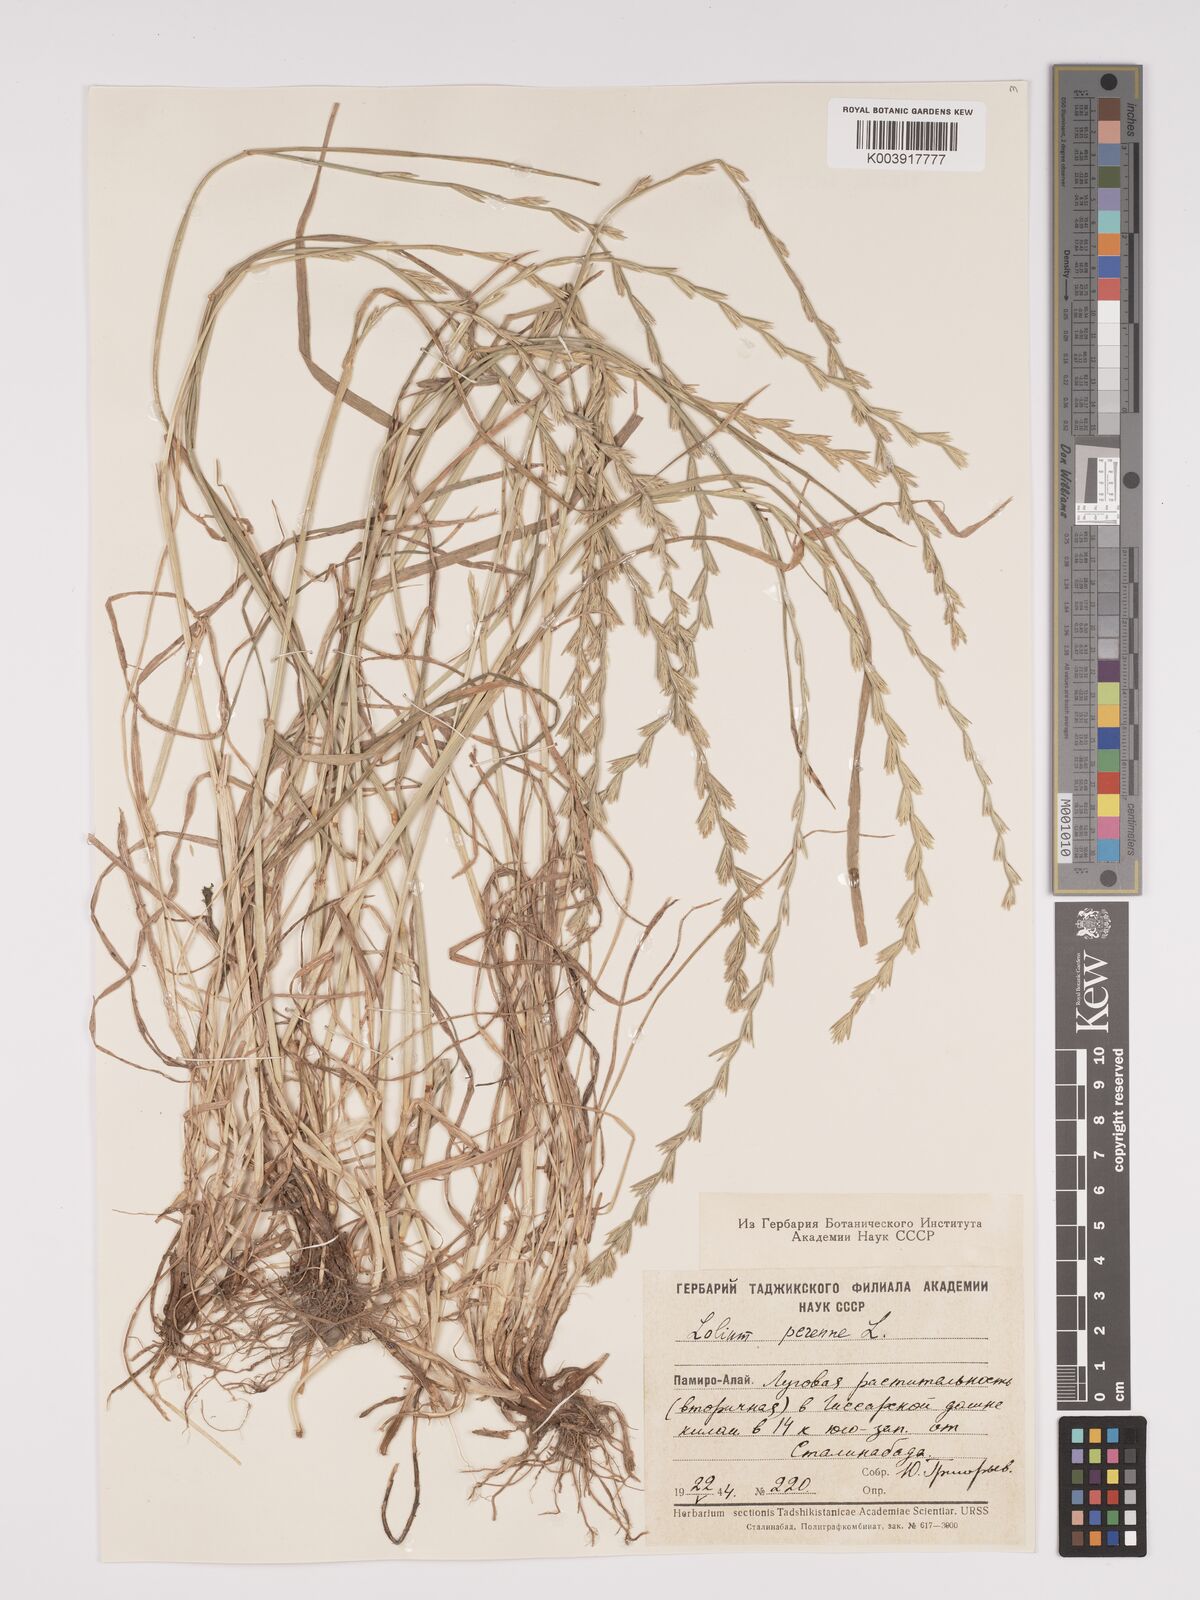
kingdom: Plantae
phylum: Tracheophyta
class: Liliopsida
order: Poales
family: Poaceae
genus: Lolium
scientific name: Lolium perenne
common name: Perennial ryegrass
